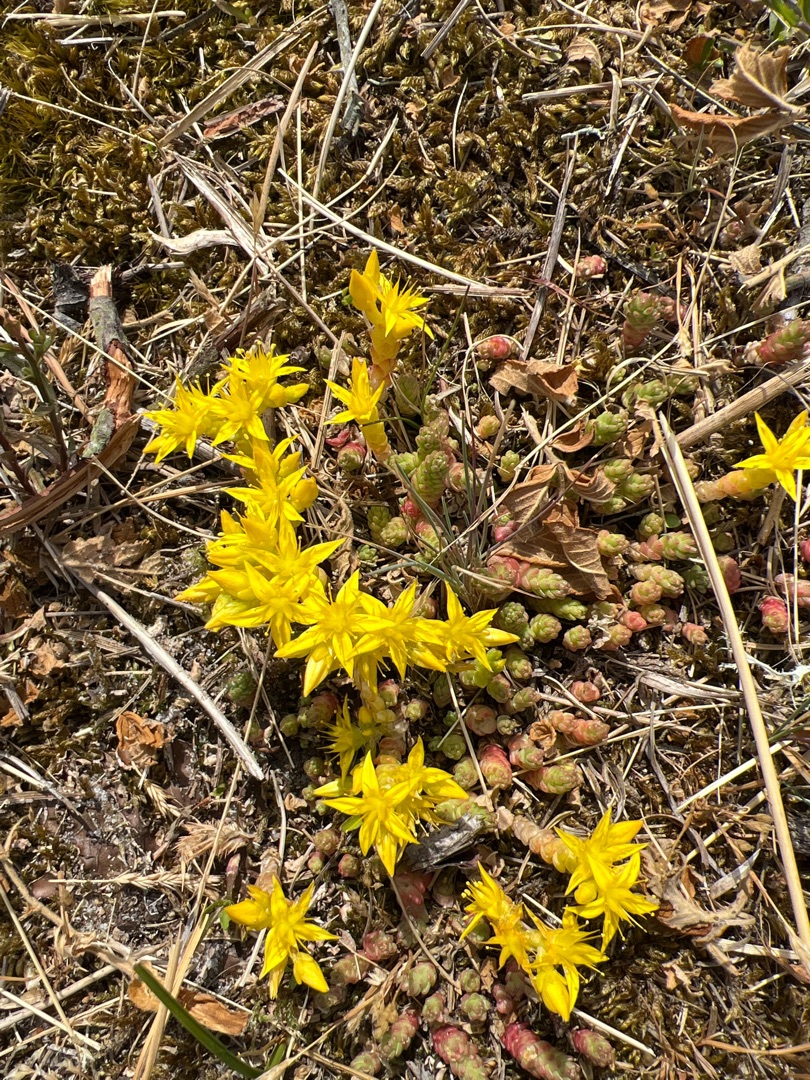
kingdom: Plantae
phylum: Tracheophyta
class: Magnoliopsida
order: Saxifragales
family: Crassulaceae
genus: Sedum
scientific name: Sedum acre
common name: Bidende stenurt
